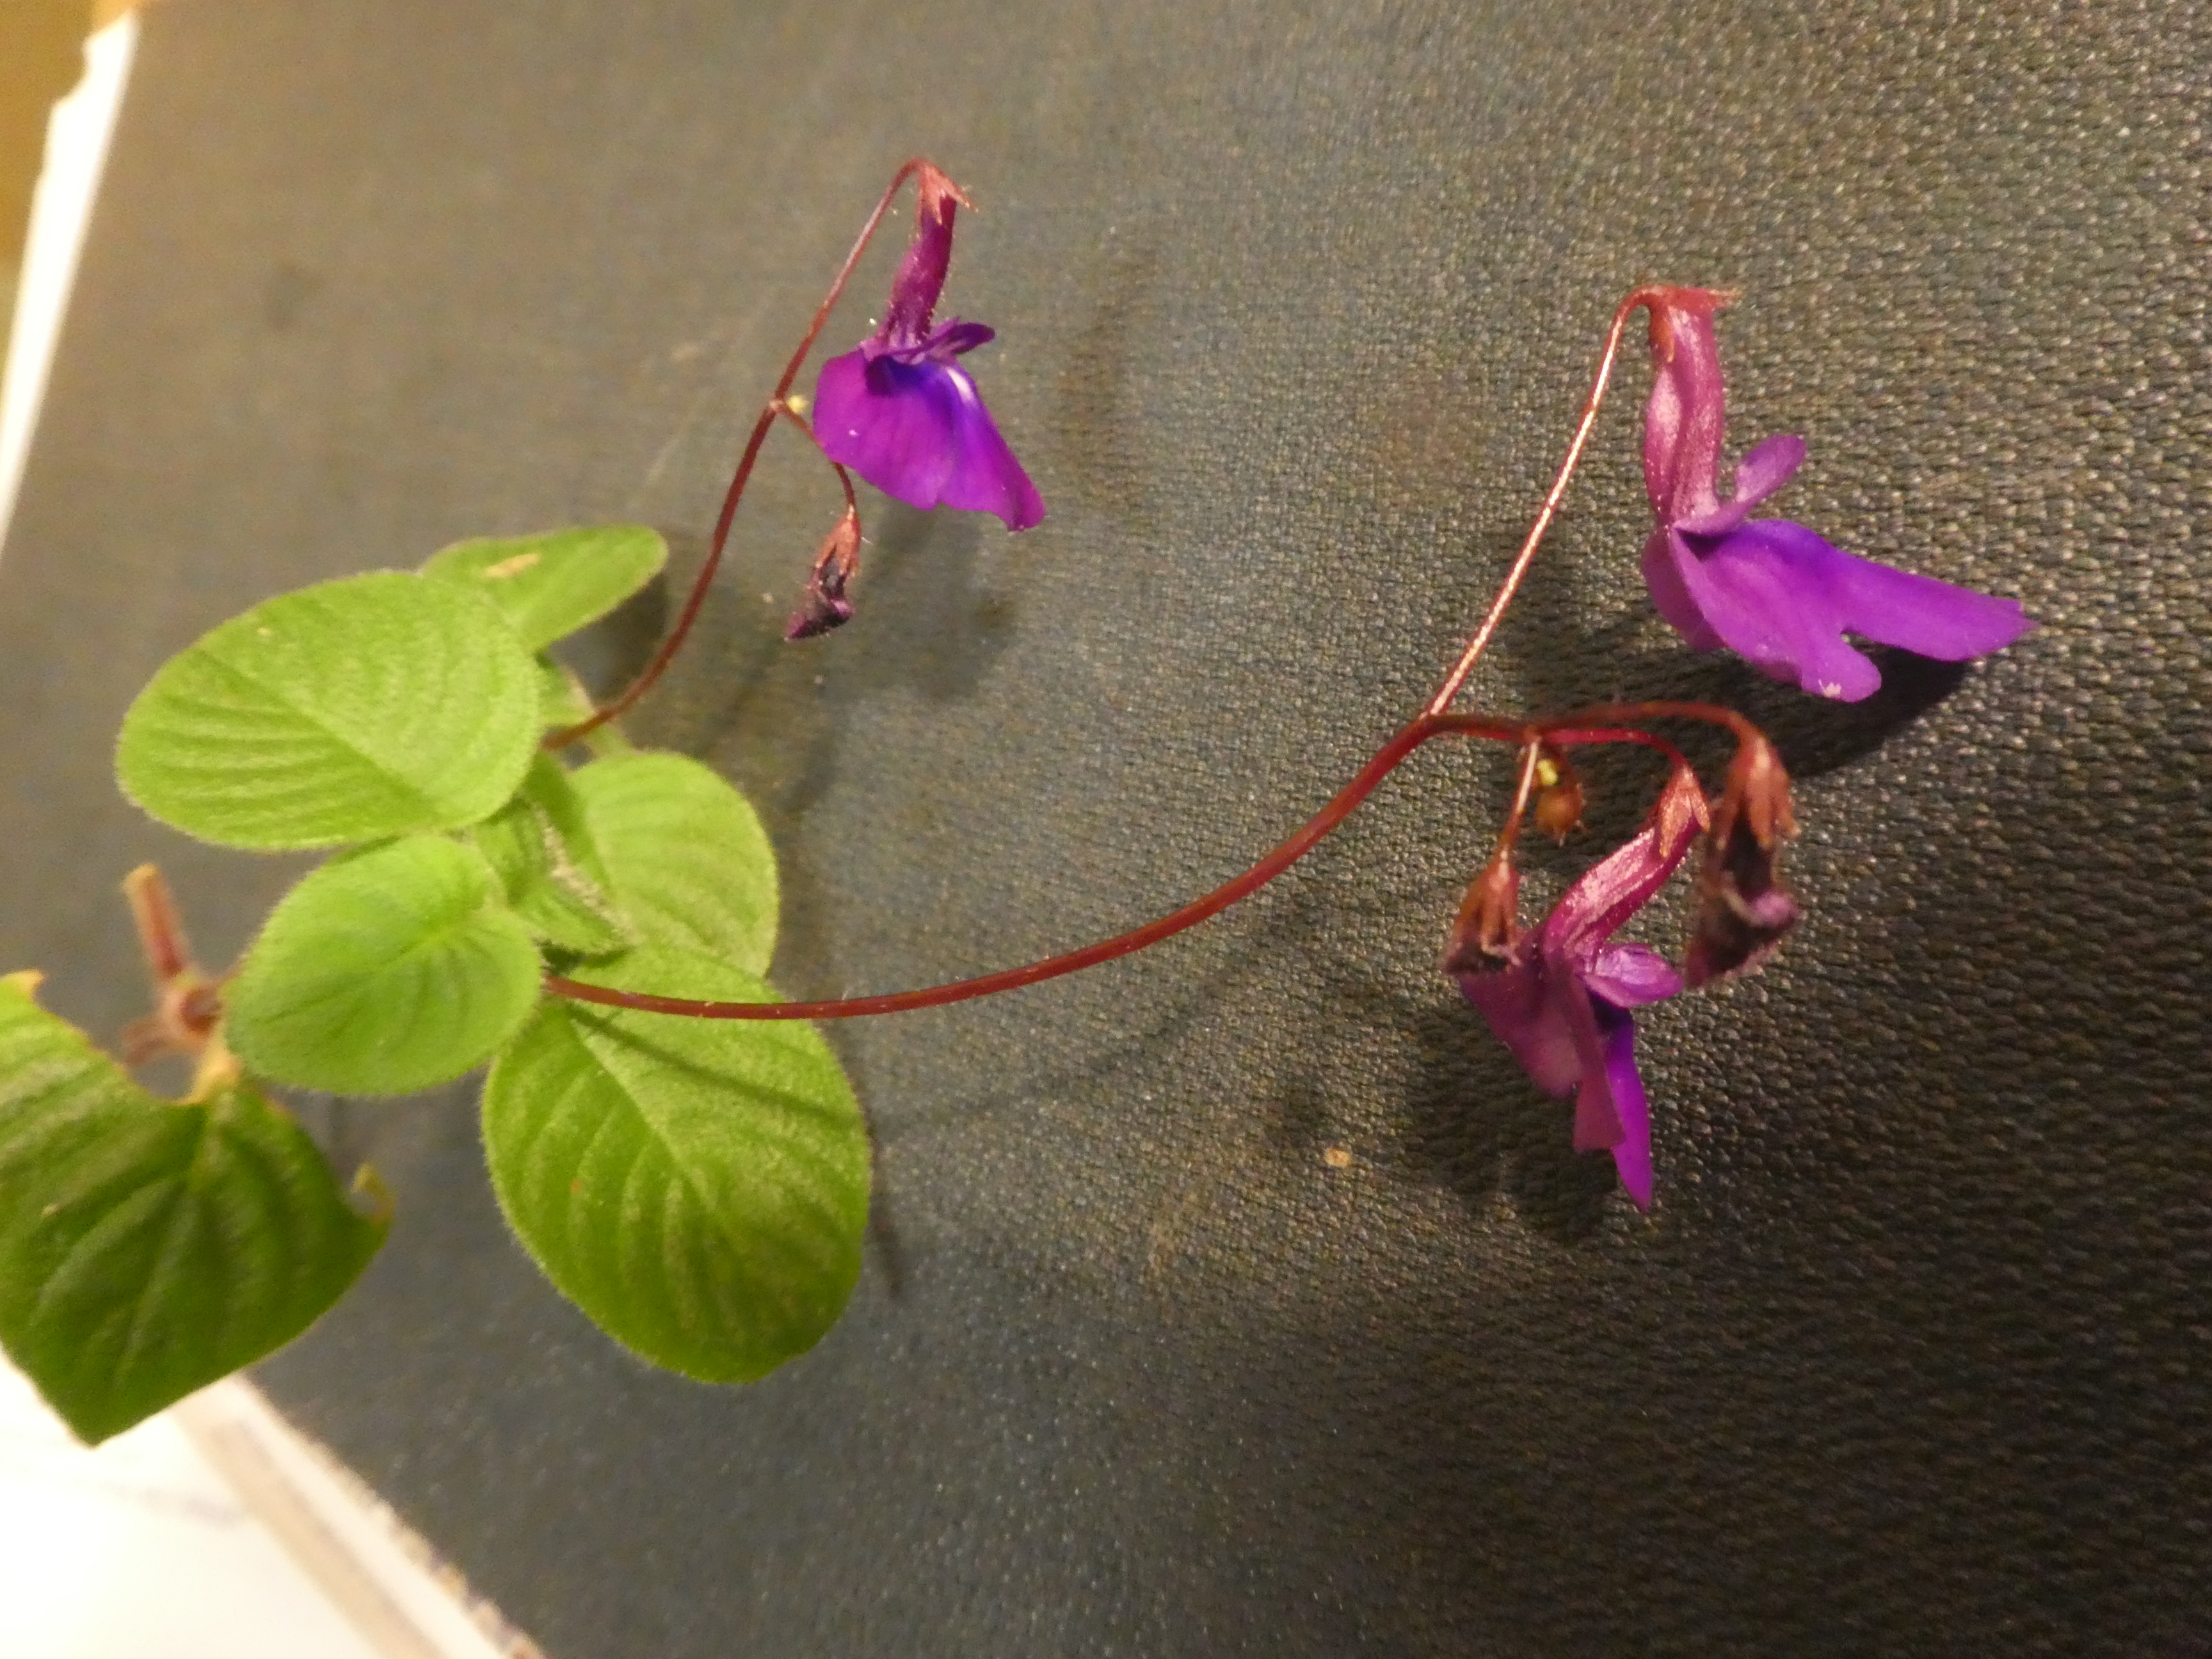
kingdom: Plantae
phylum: Tracheophyta
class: Magnoliopsida
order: Lamiales
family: Gesneriaceae
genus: Streptocarpus
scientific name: Streptocarpus
